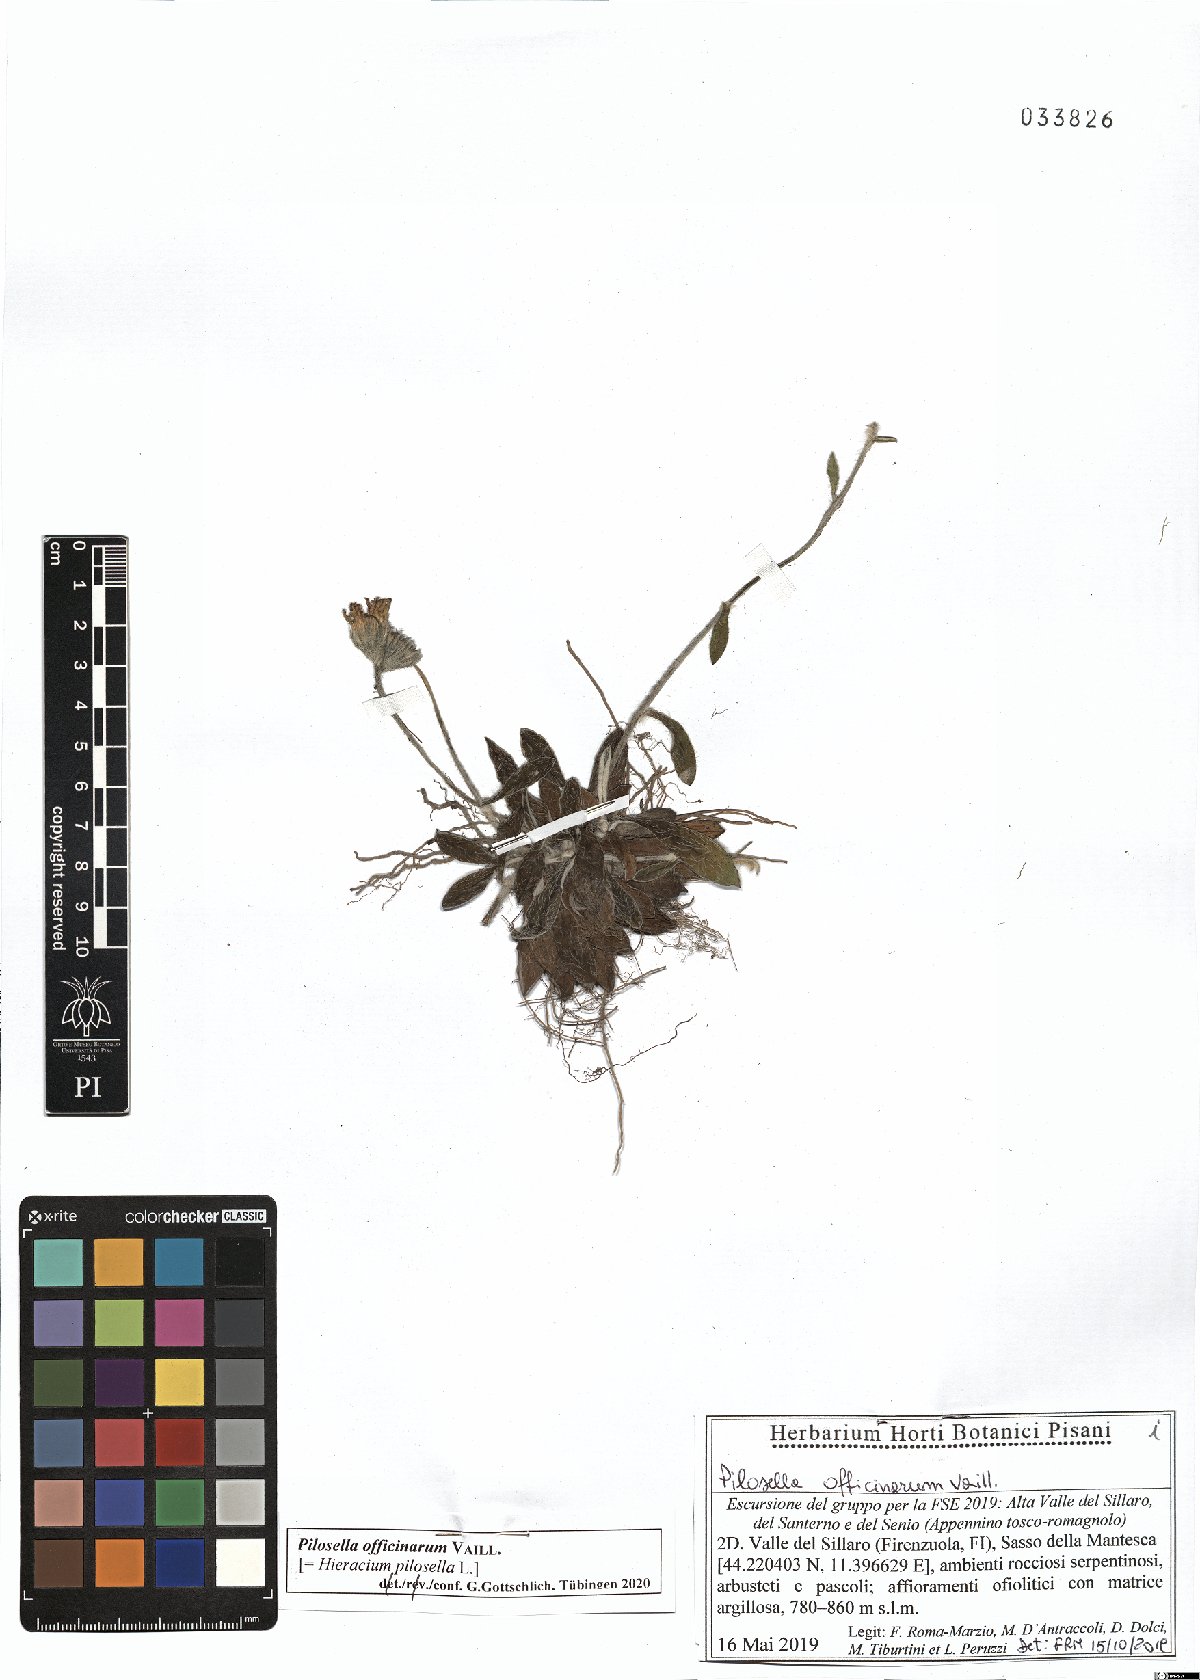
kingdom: Plantae
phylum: Tracheophyta
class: Magnoliopsida
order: Asterales
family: Asteraceae
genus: Pilosella
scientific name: Pilosella officinarum
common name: Mouse-ear hawkweed
